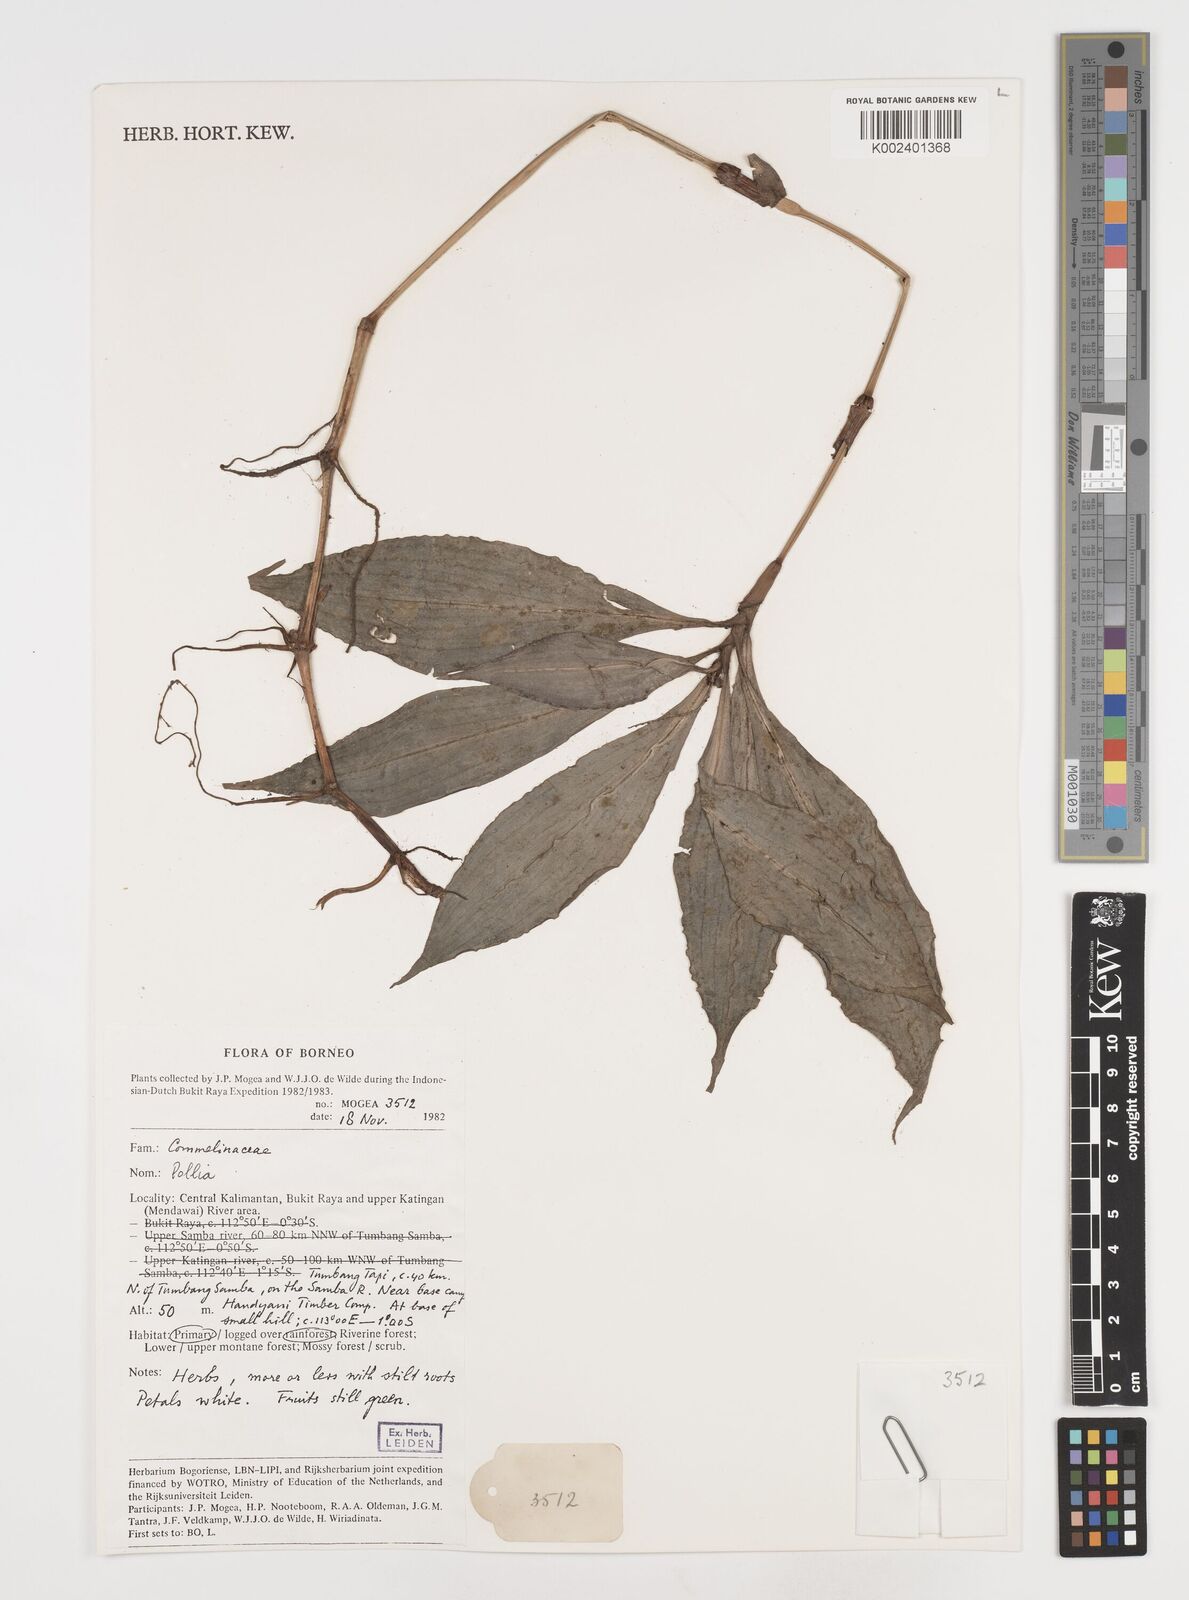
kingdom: Plantae
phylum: Tracheophyta
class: Liliopsida
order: Commelinales
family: Commelinaceae
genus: Pollia
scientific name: Pollia
